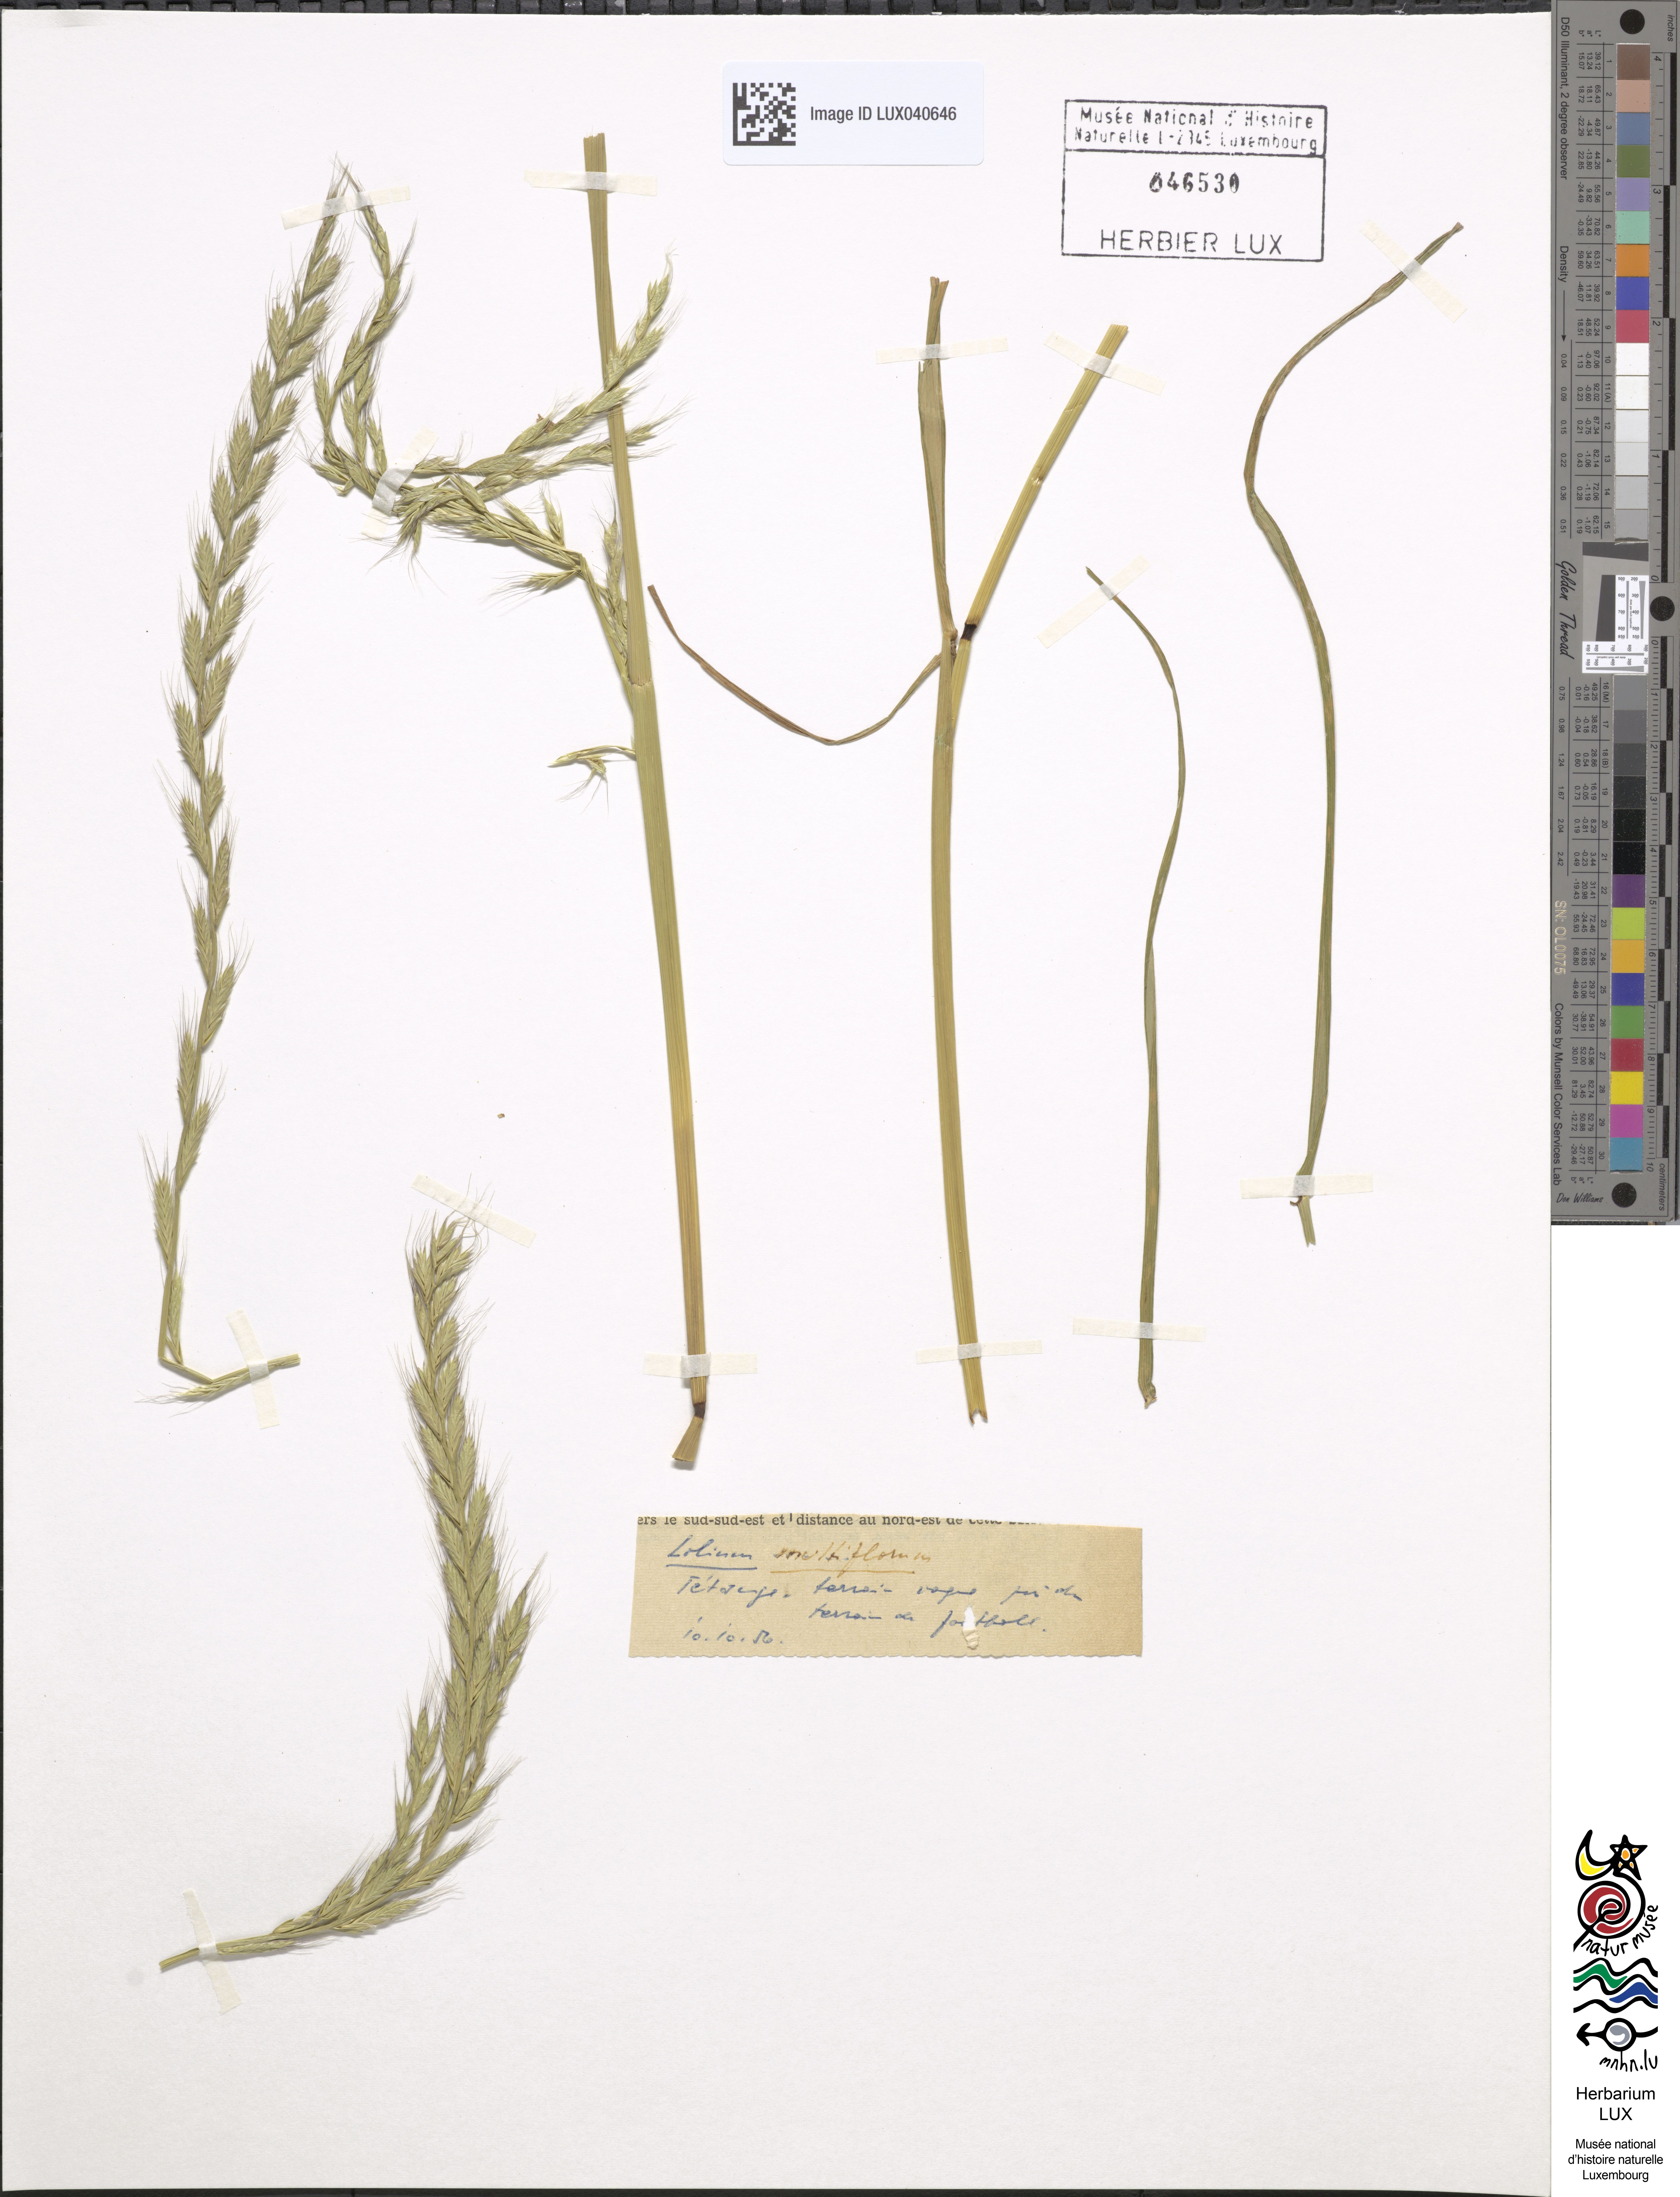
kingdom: Plantae
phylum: Tracheophyta
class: Liliopsida
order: Poales
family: Poaceae
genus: Lolium
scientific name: Lolium multiflorum
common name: Annual ryegrass
